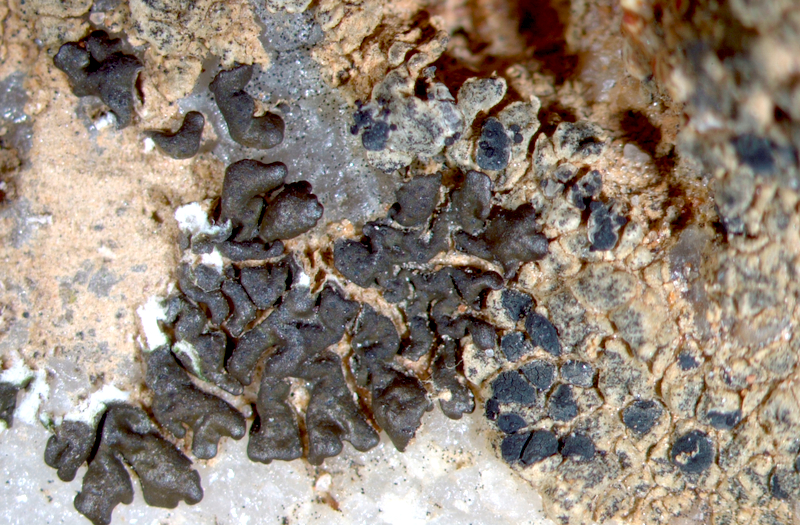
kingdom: Fungi
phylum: Ascomycota
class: Lecanoromycetes
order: Lecanorales
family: Parmeliaceae
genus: Neofuscelia
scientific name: Neofuscelia
